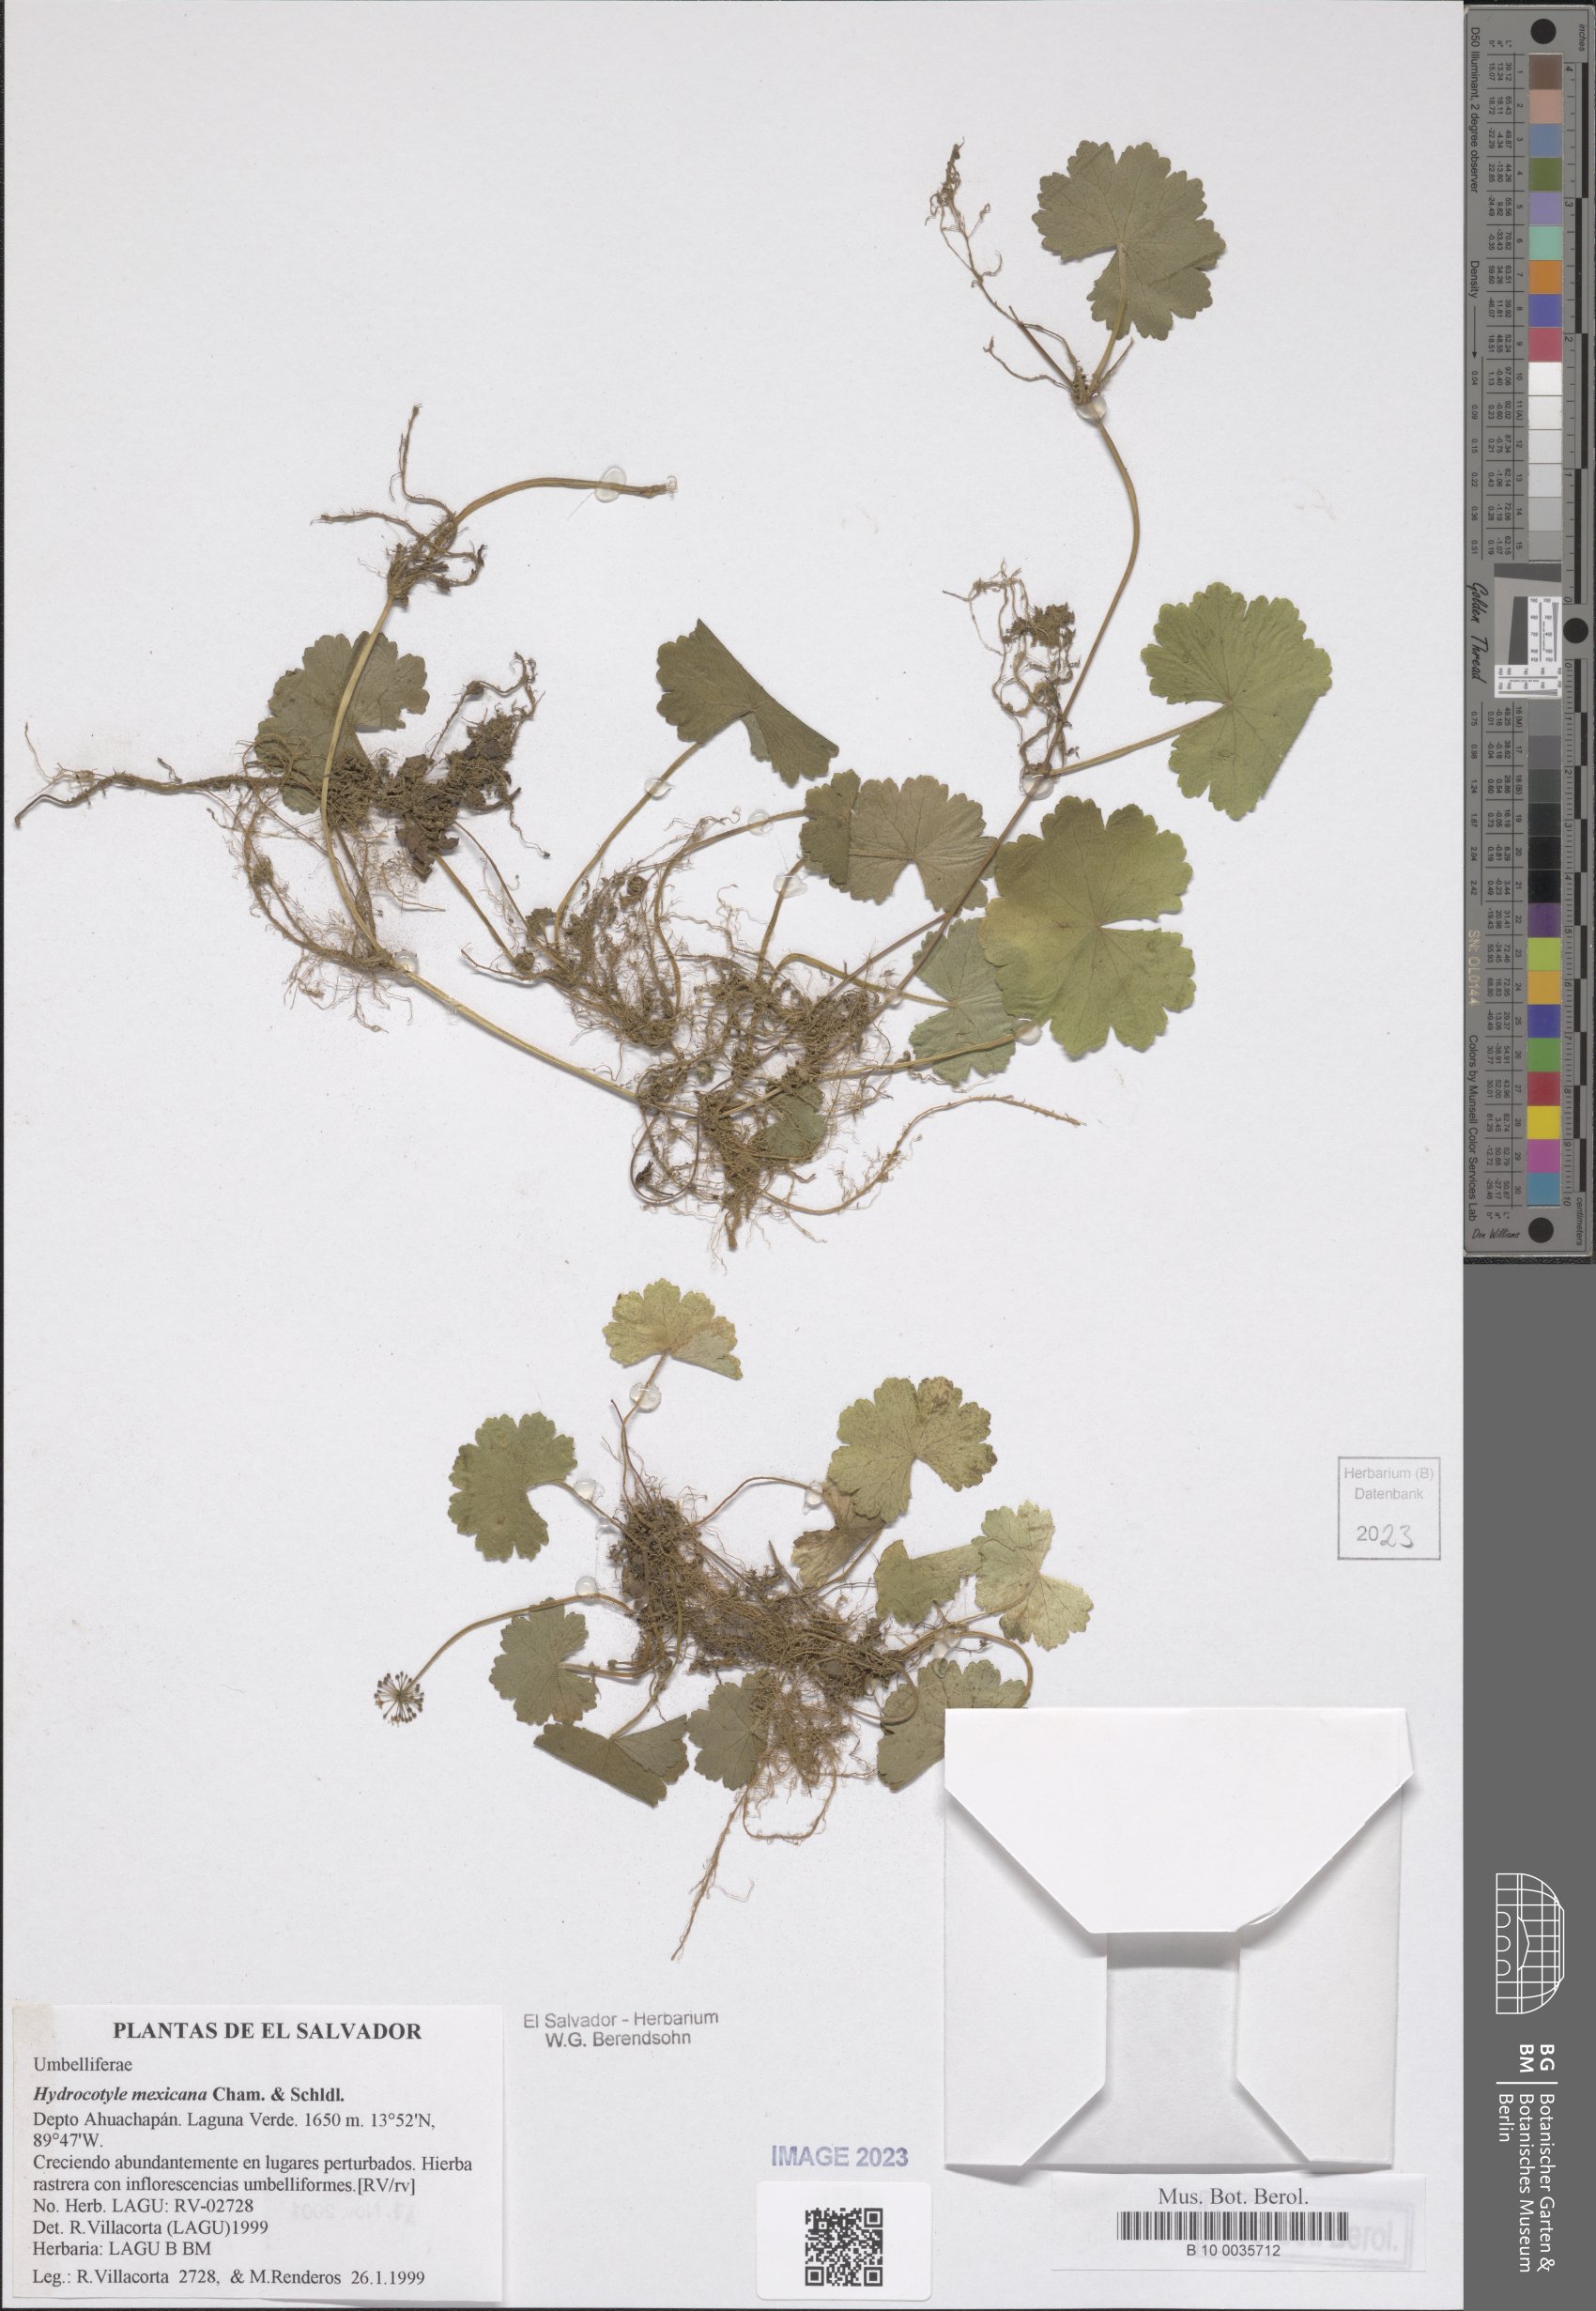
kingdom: Plantae
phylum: Tracheophyta
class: Magnoliopsida
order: Apiales
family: Araliaceae
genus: Hydrocotyle
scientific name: Hydrocotyle mexicana
